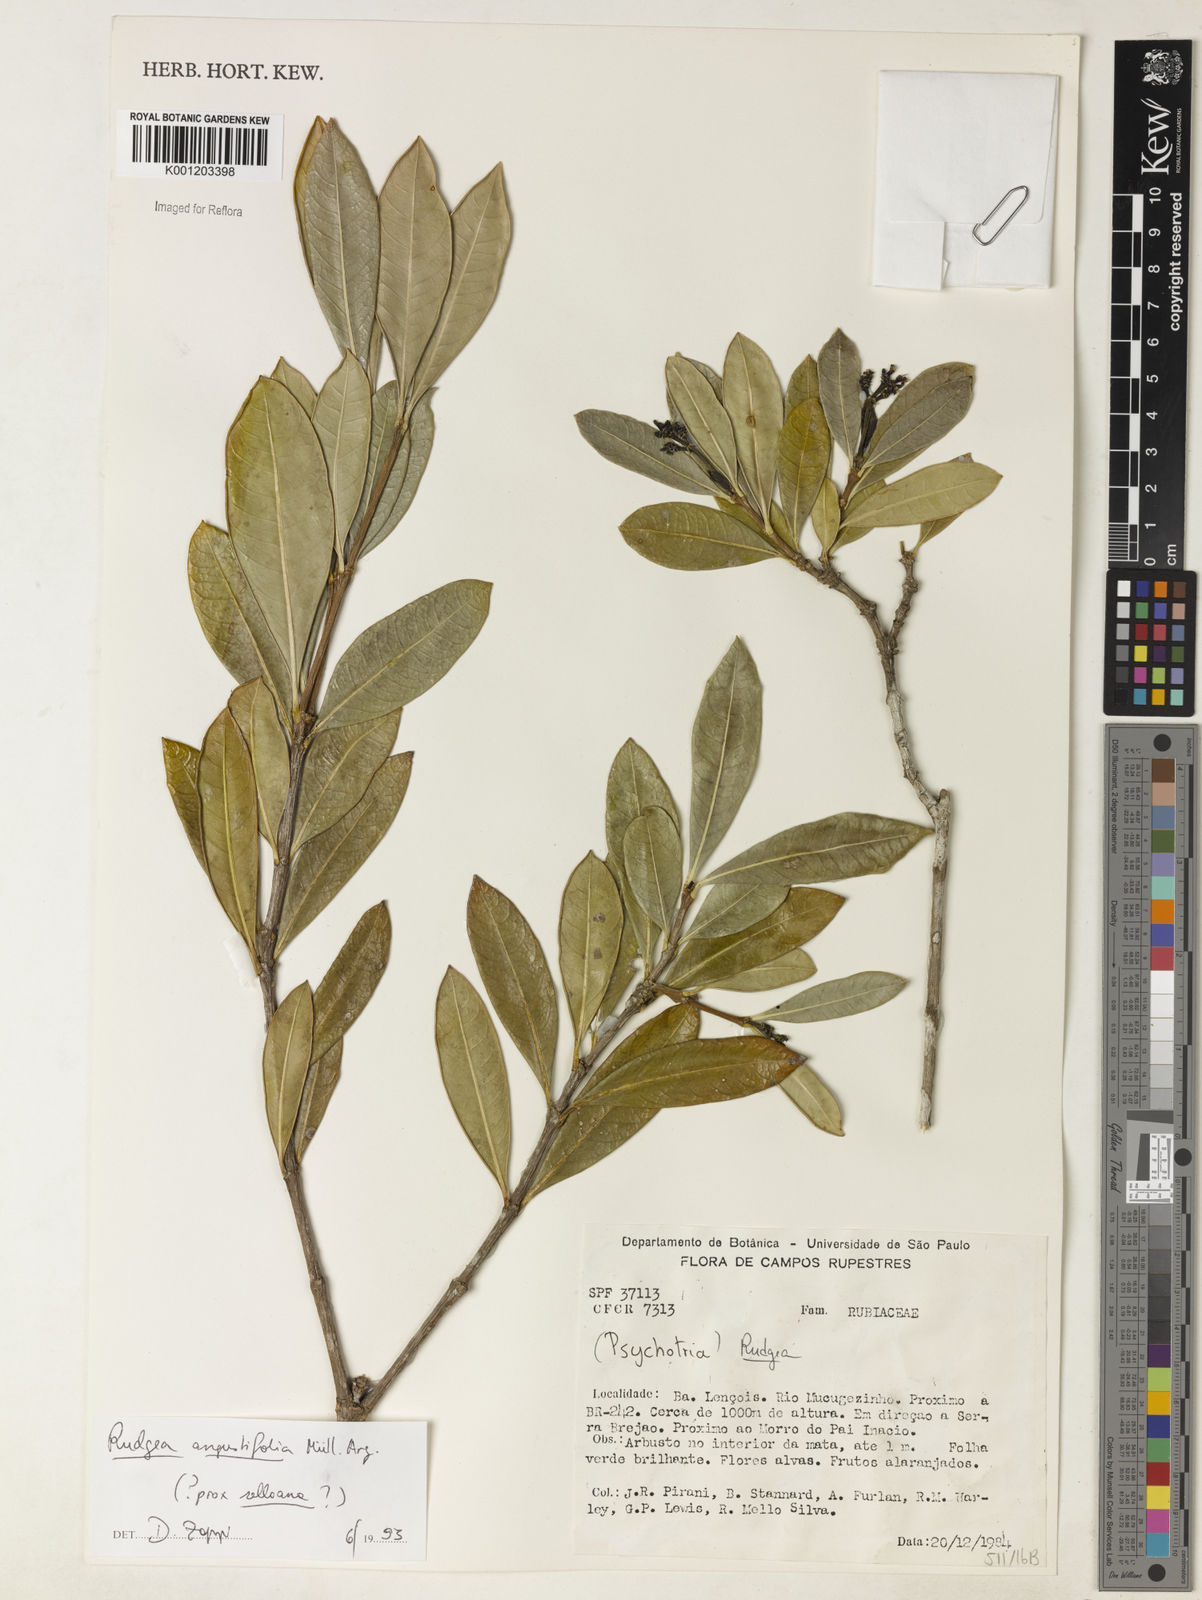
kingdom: Plantae
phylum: Tracheophyta
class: Magnoliopsida
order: Gentianales
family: Rubiaceae
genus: Rudgea
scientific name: Rudgea triflora
